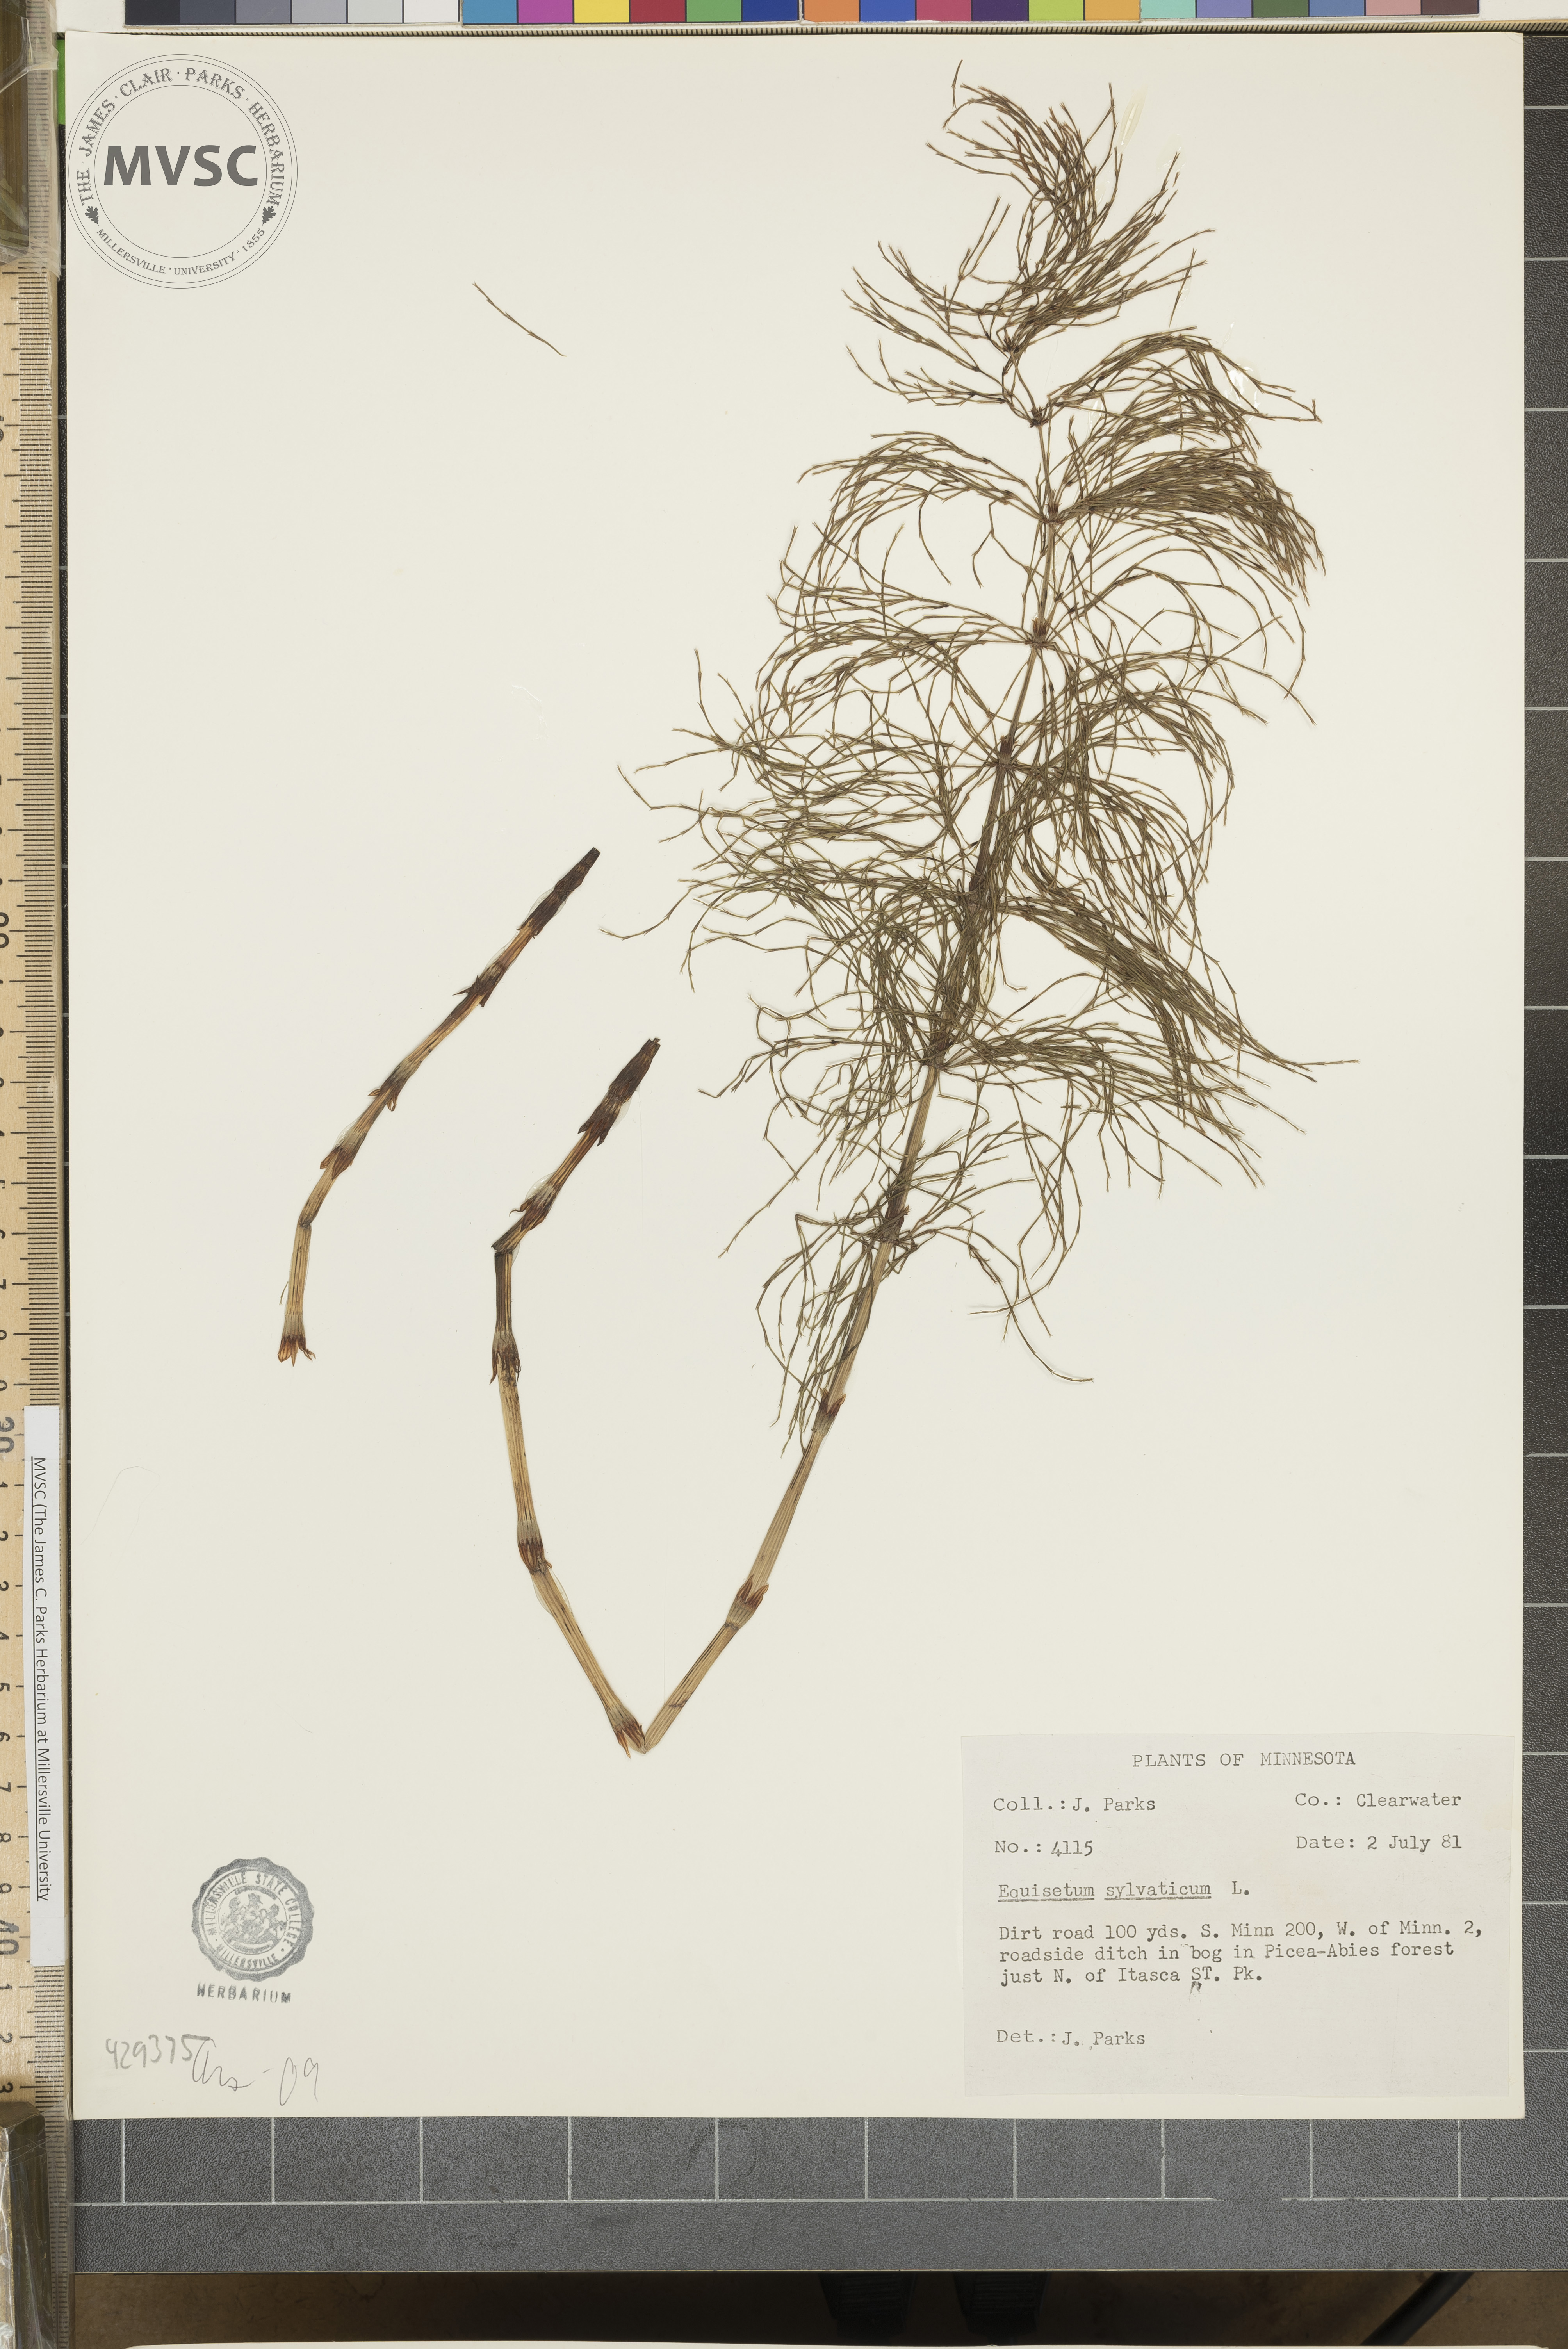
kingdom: Plantae
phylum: Tracheophyta
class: Polypodiopsida
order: Equisetales
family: Equisetaceae
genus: Equisetum
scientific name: Equisetum sylvaticum
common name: Wood horsetail
